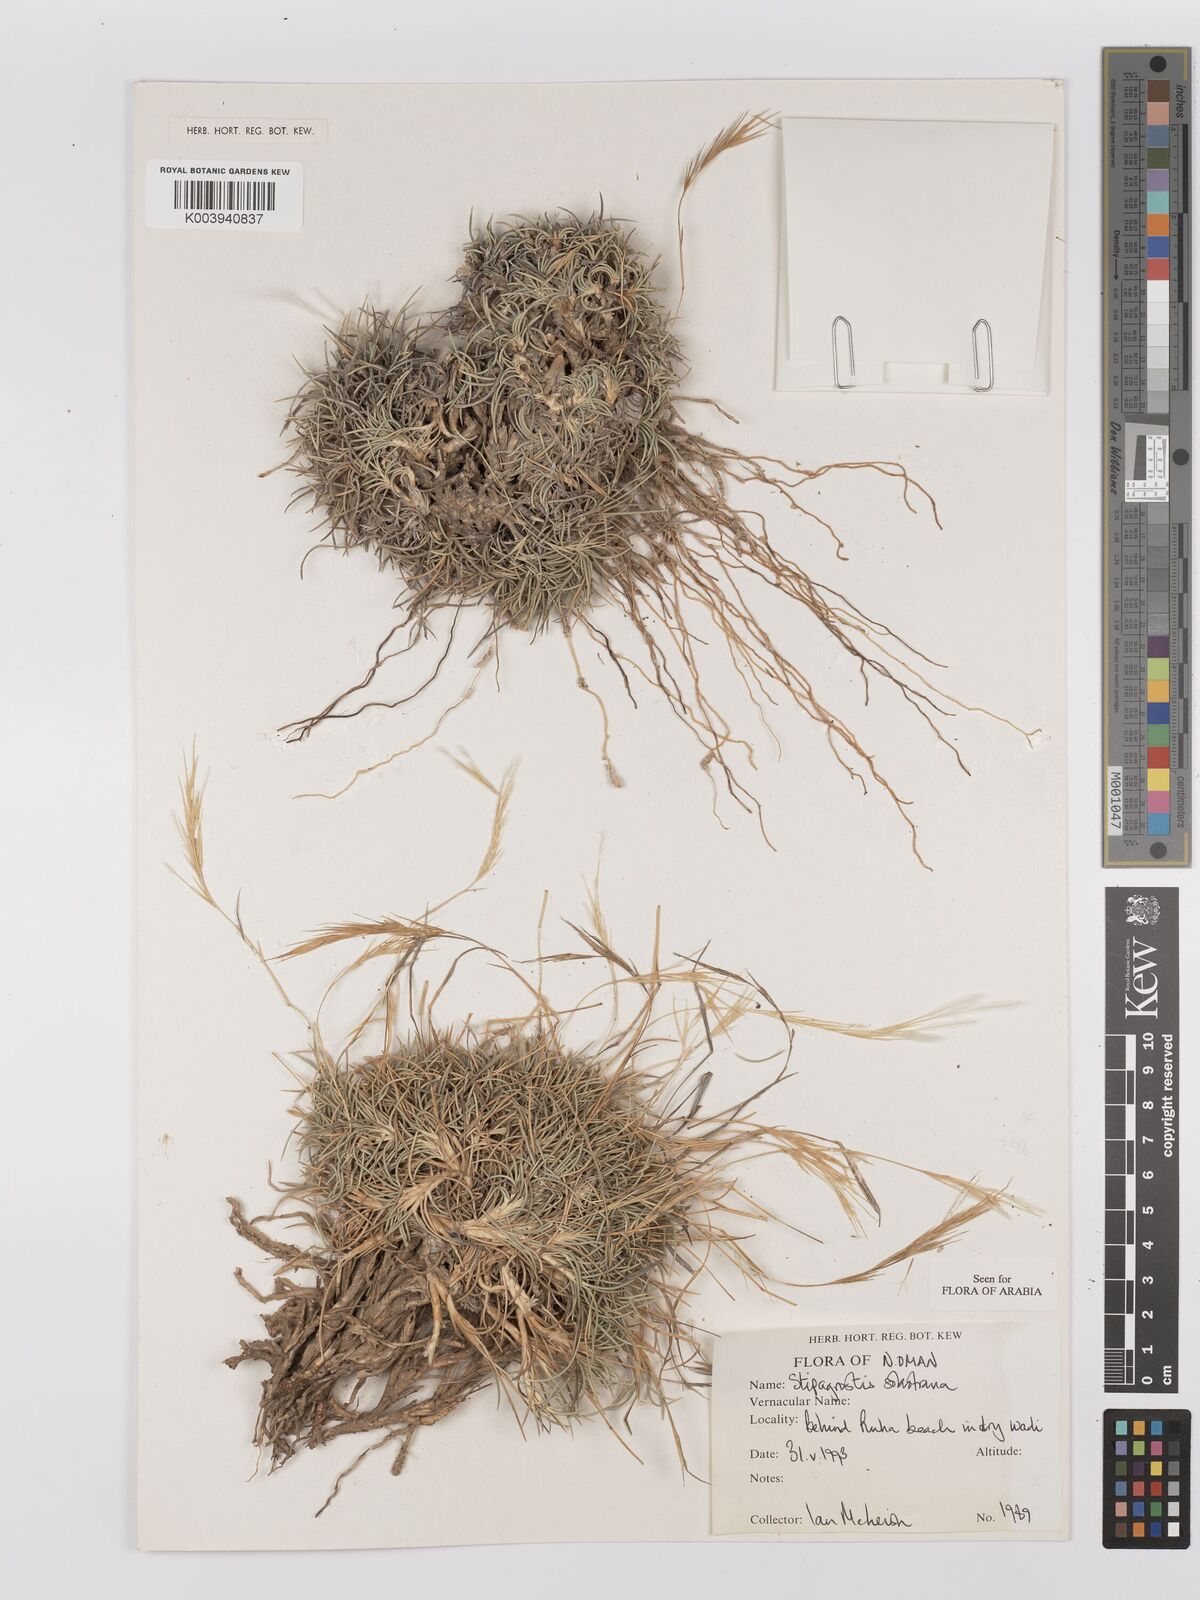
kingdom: Plantae
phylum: Tracheophyta
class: Liliopsida
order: Poales
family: Poaceae
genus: Stipagrostis
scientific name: Stipagrostis sokotrana
